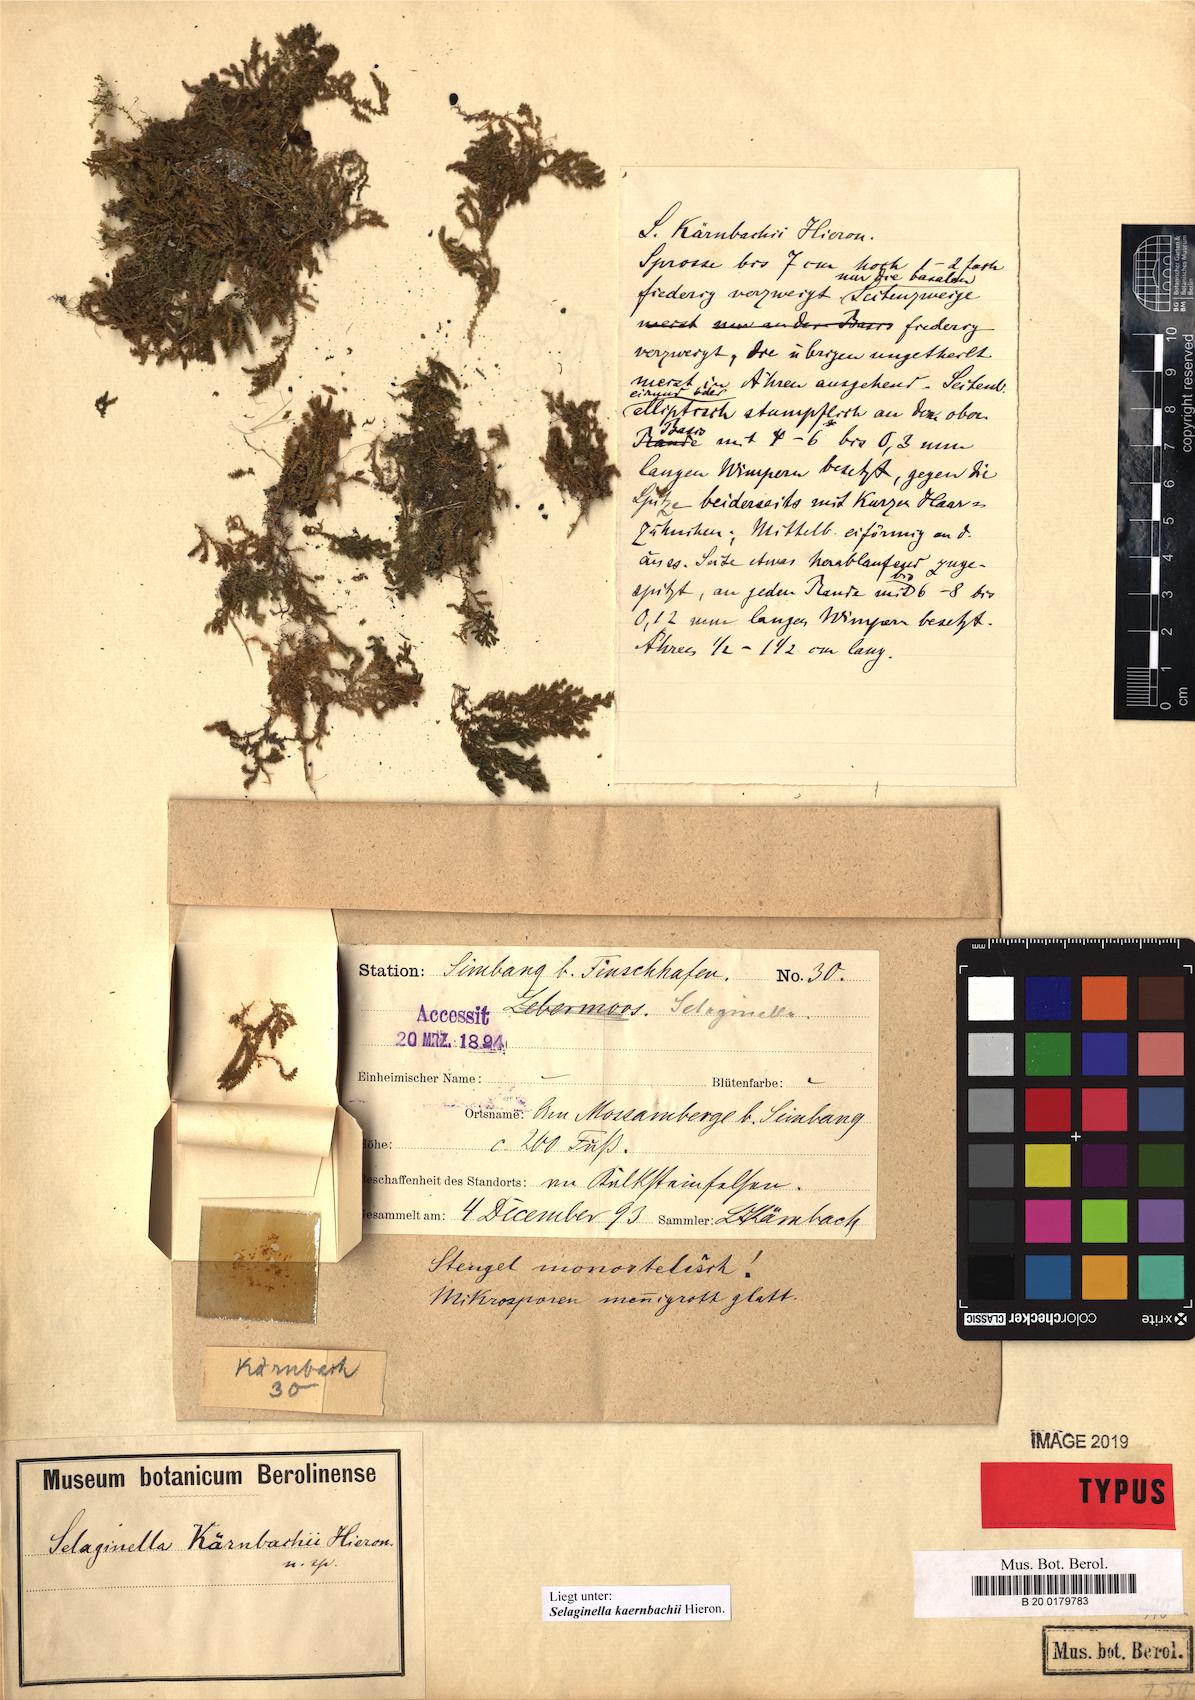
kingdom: Plantae
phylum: Tracheophyta
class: Lycopodiopsida
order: Selaginellales
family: Selaginellaceae
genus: Selaginella
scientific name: Selaginella kaernbachii
